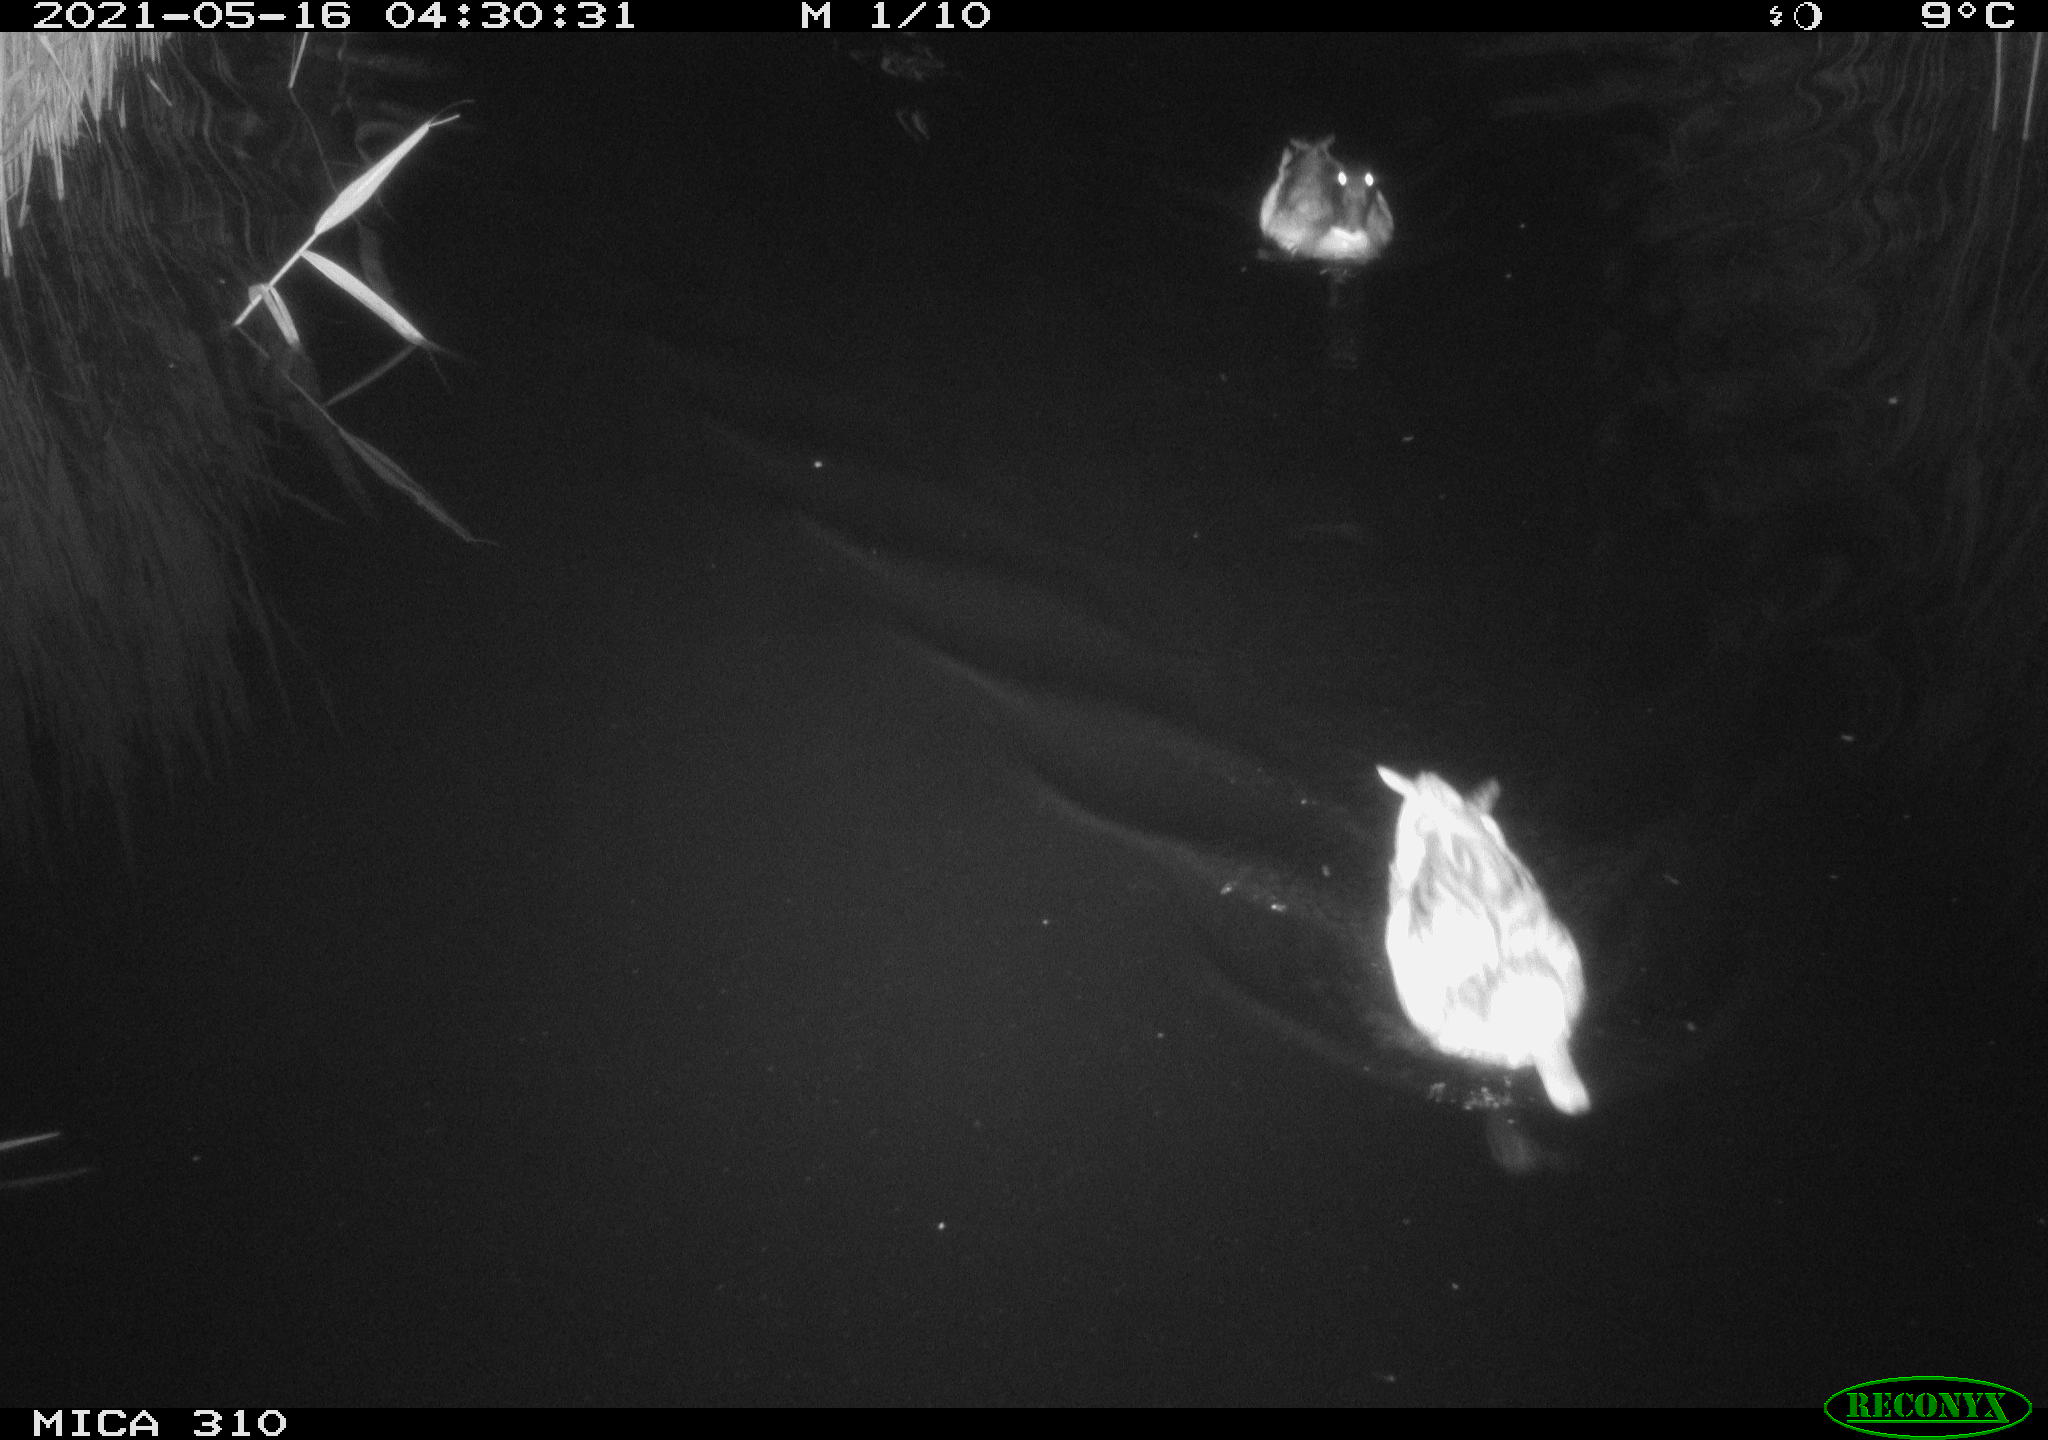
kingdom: Animalia
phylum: Chordata
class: Aves
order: Anseriformes
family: Anatidae
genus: Anas
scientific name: Anas platyrhynchos
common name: Mallard
